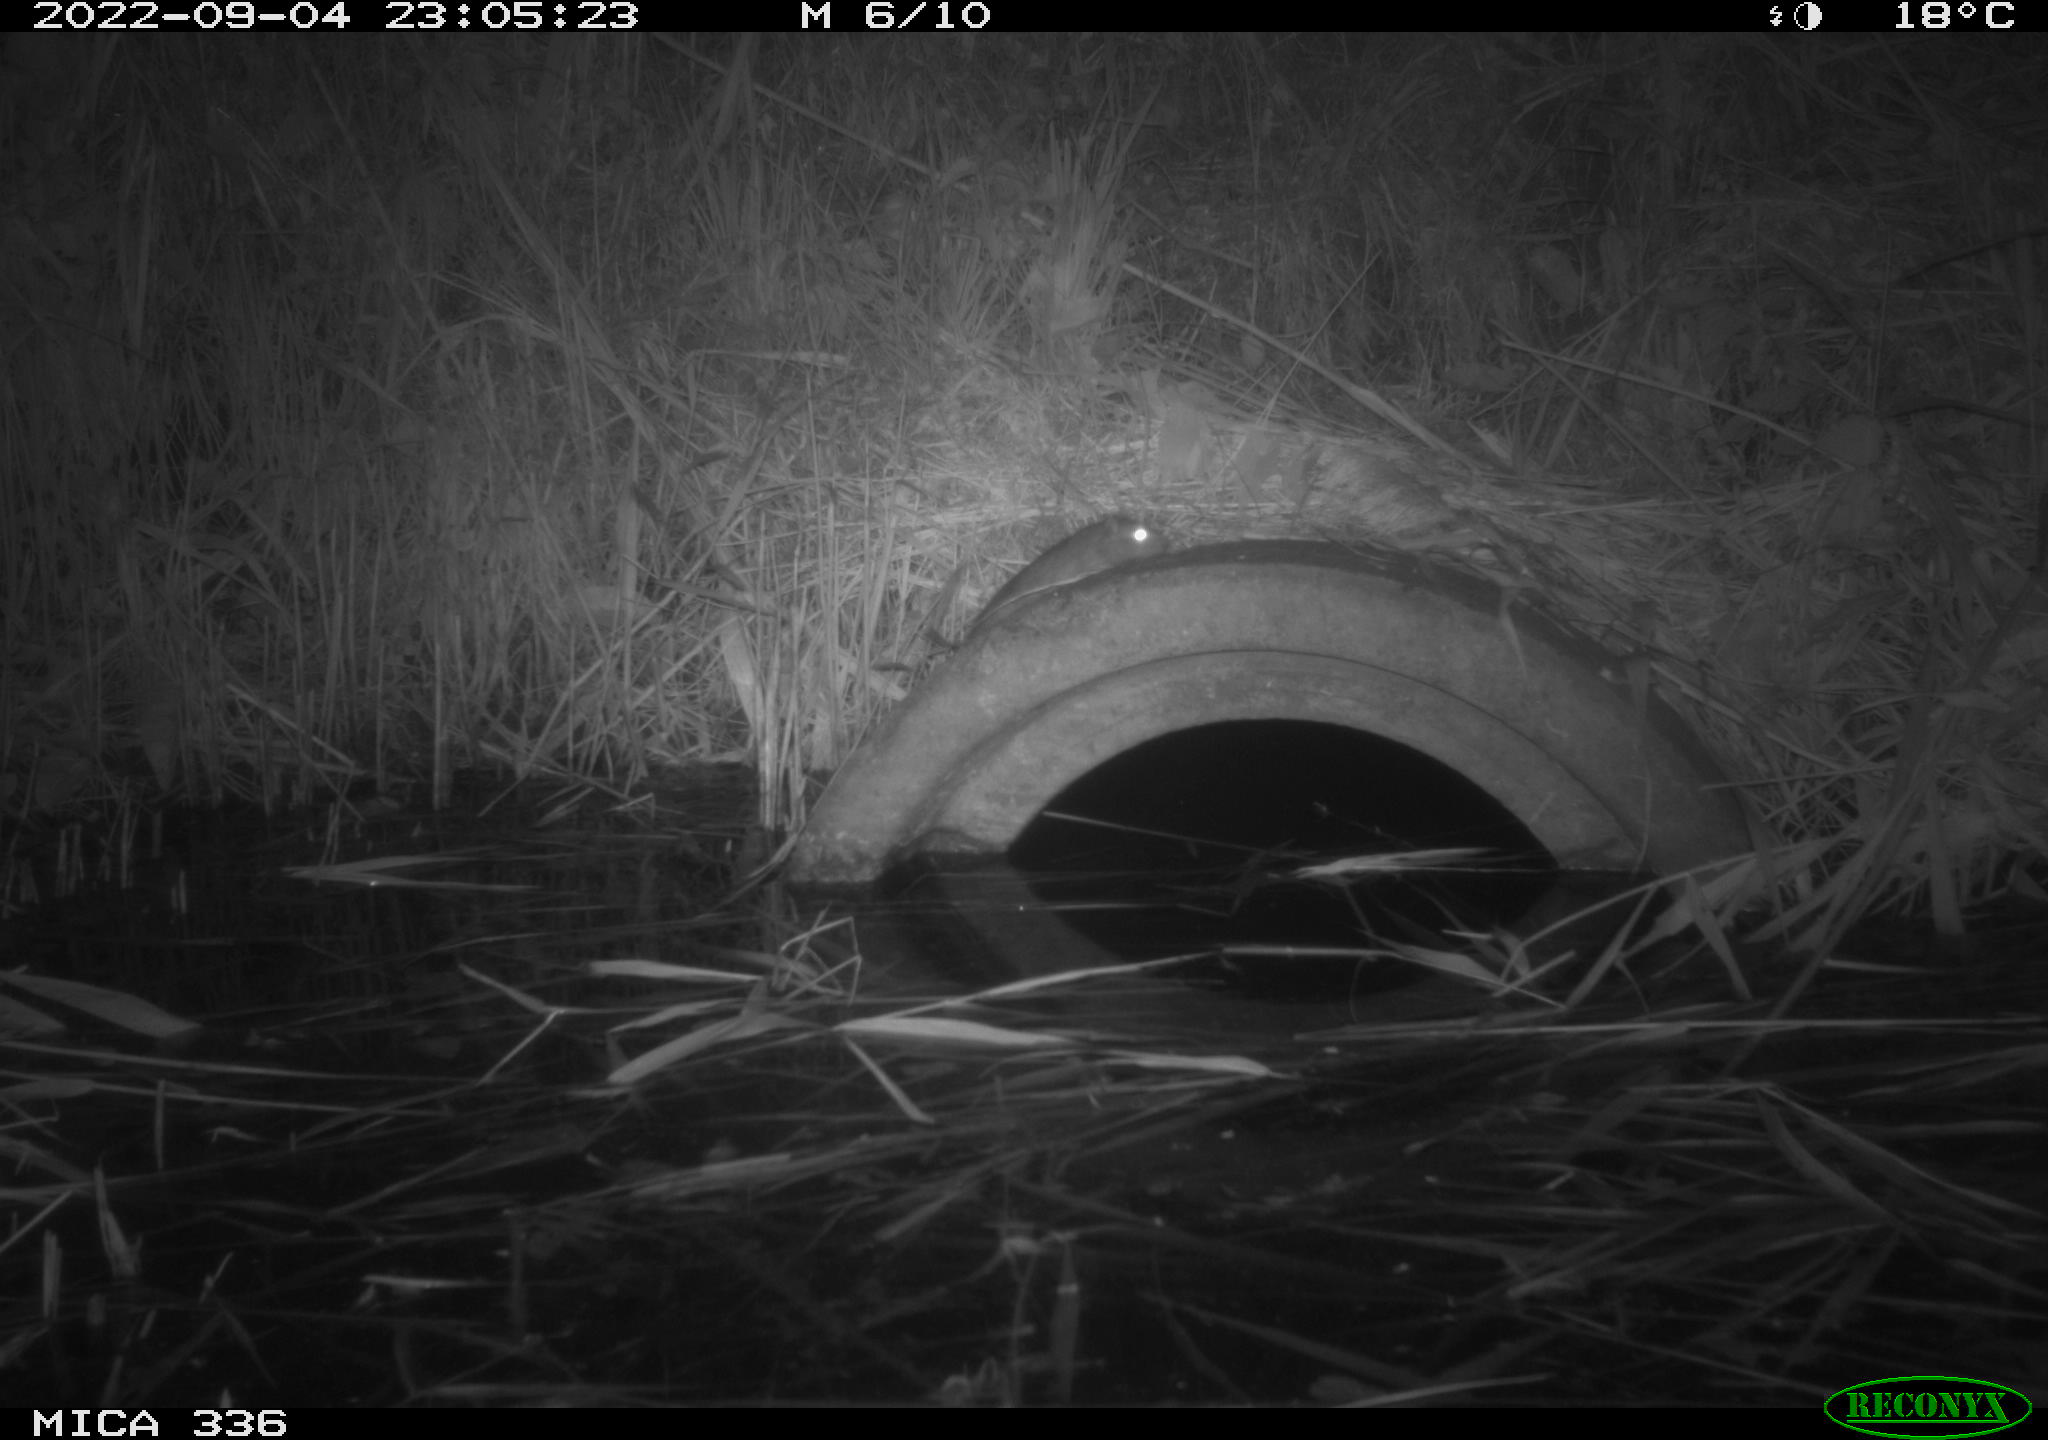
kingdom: Animalia
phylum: Chordata
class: Mammalia
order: Rodentia
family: Muridae
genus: Rattus
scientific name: Rattus norvegicus
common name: Brown rat
